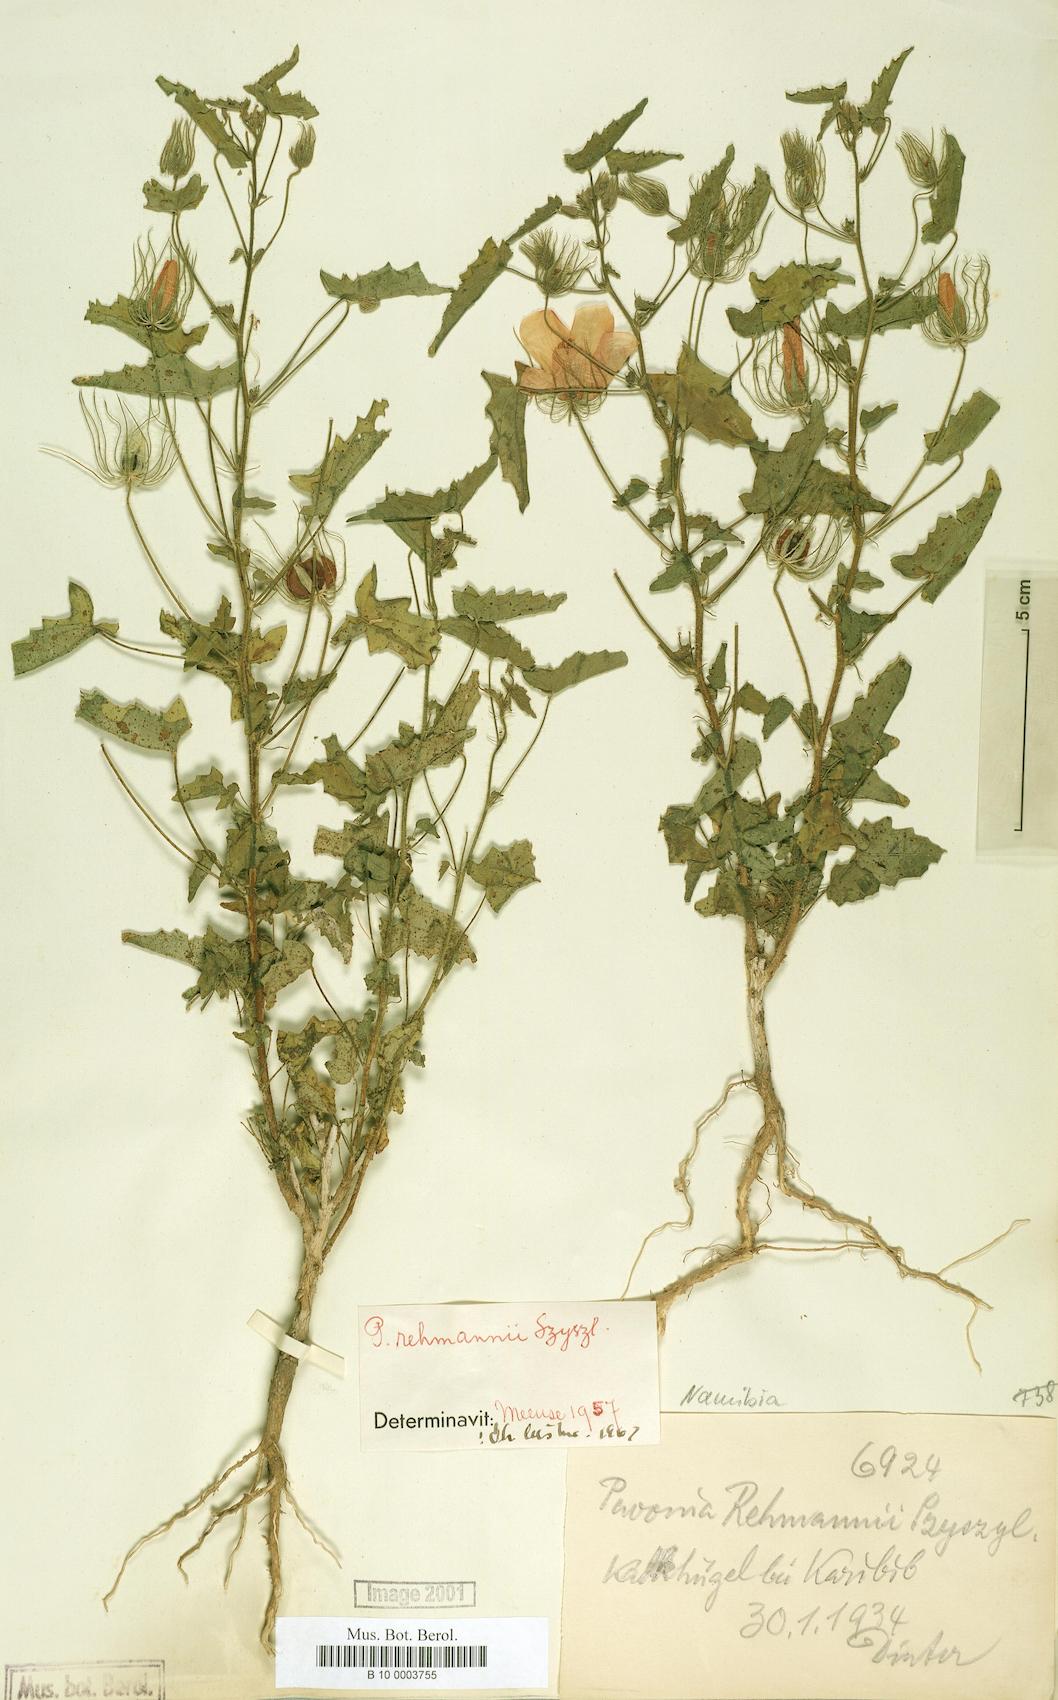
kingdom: Plantae
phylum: Tracheophyta
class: Magnoliopsida
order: Malvales
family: Malvaceae
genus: Pavonia
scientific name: Pavonia rehmannii
